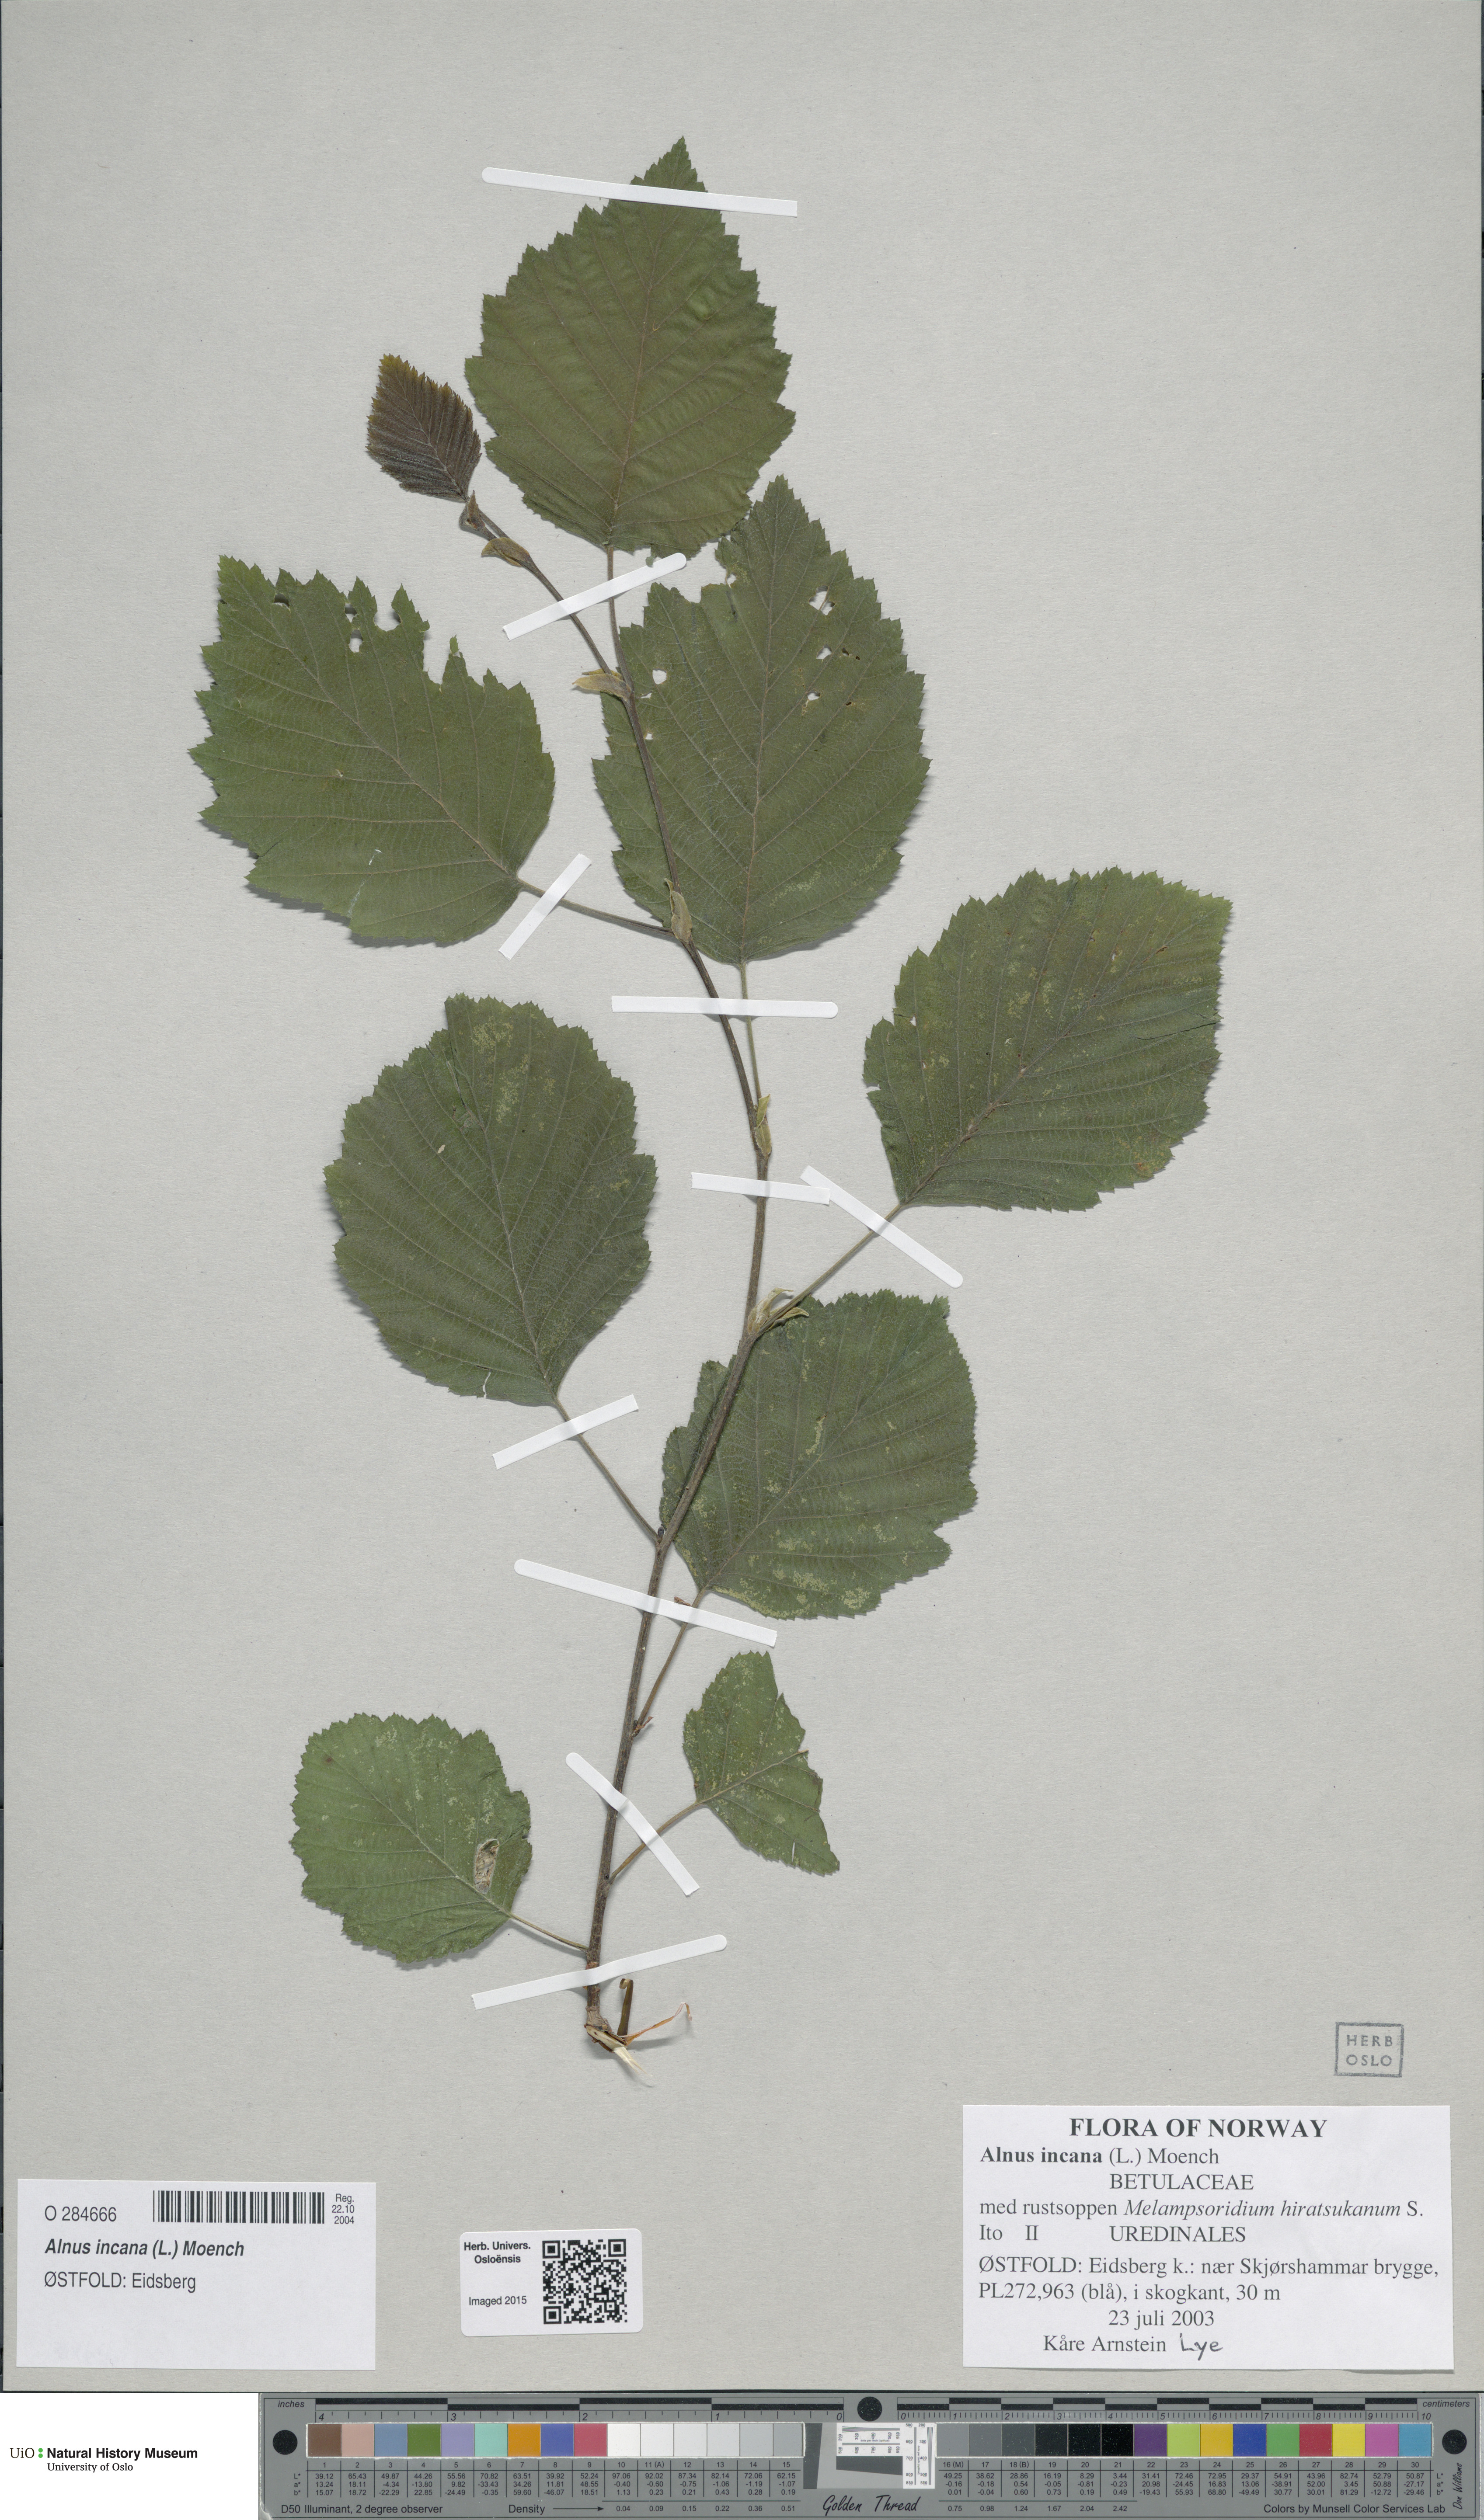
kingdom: Plantae
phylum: Tracheophyta
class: Magnoliopsida
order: Fagales
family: Betulaceae
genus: Alnus
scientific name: Alnus incana
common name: Grey alder
